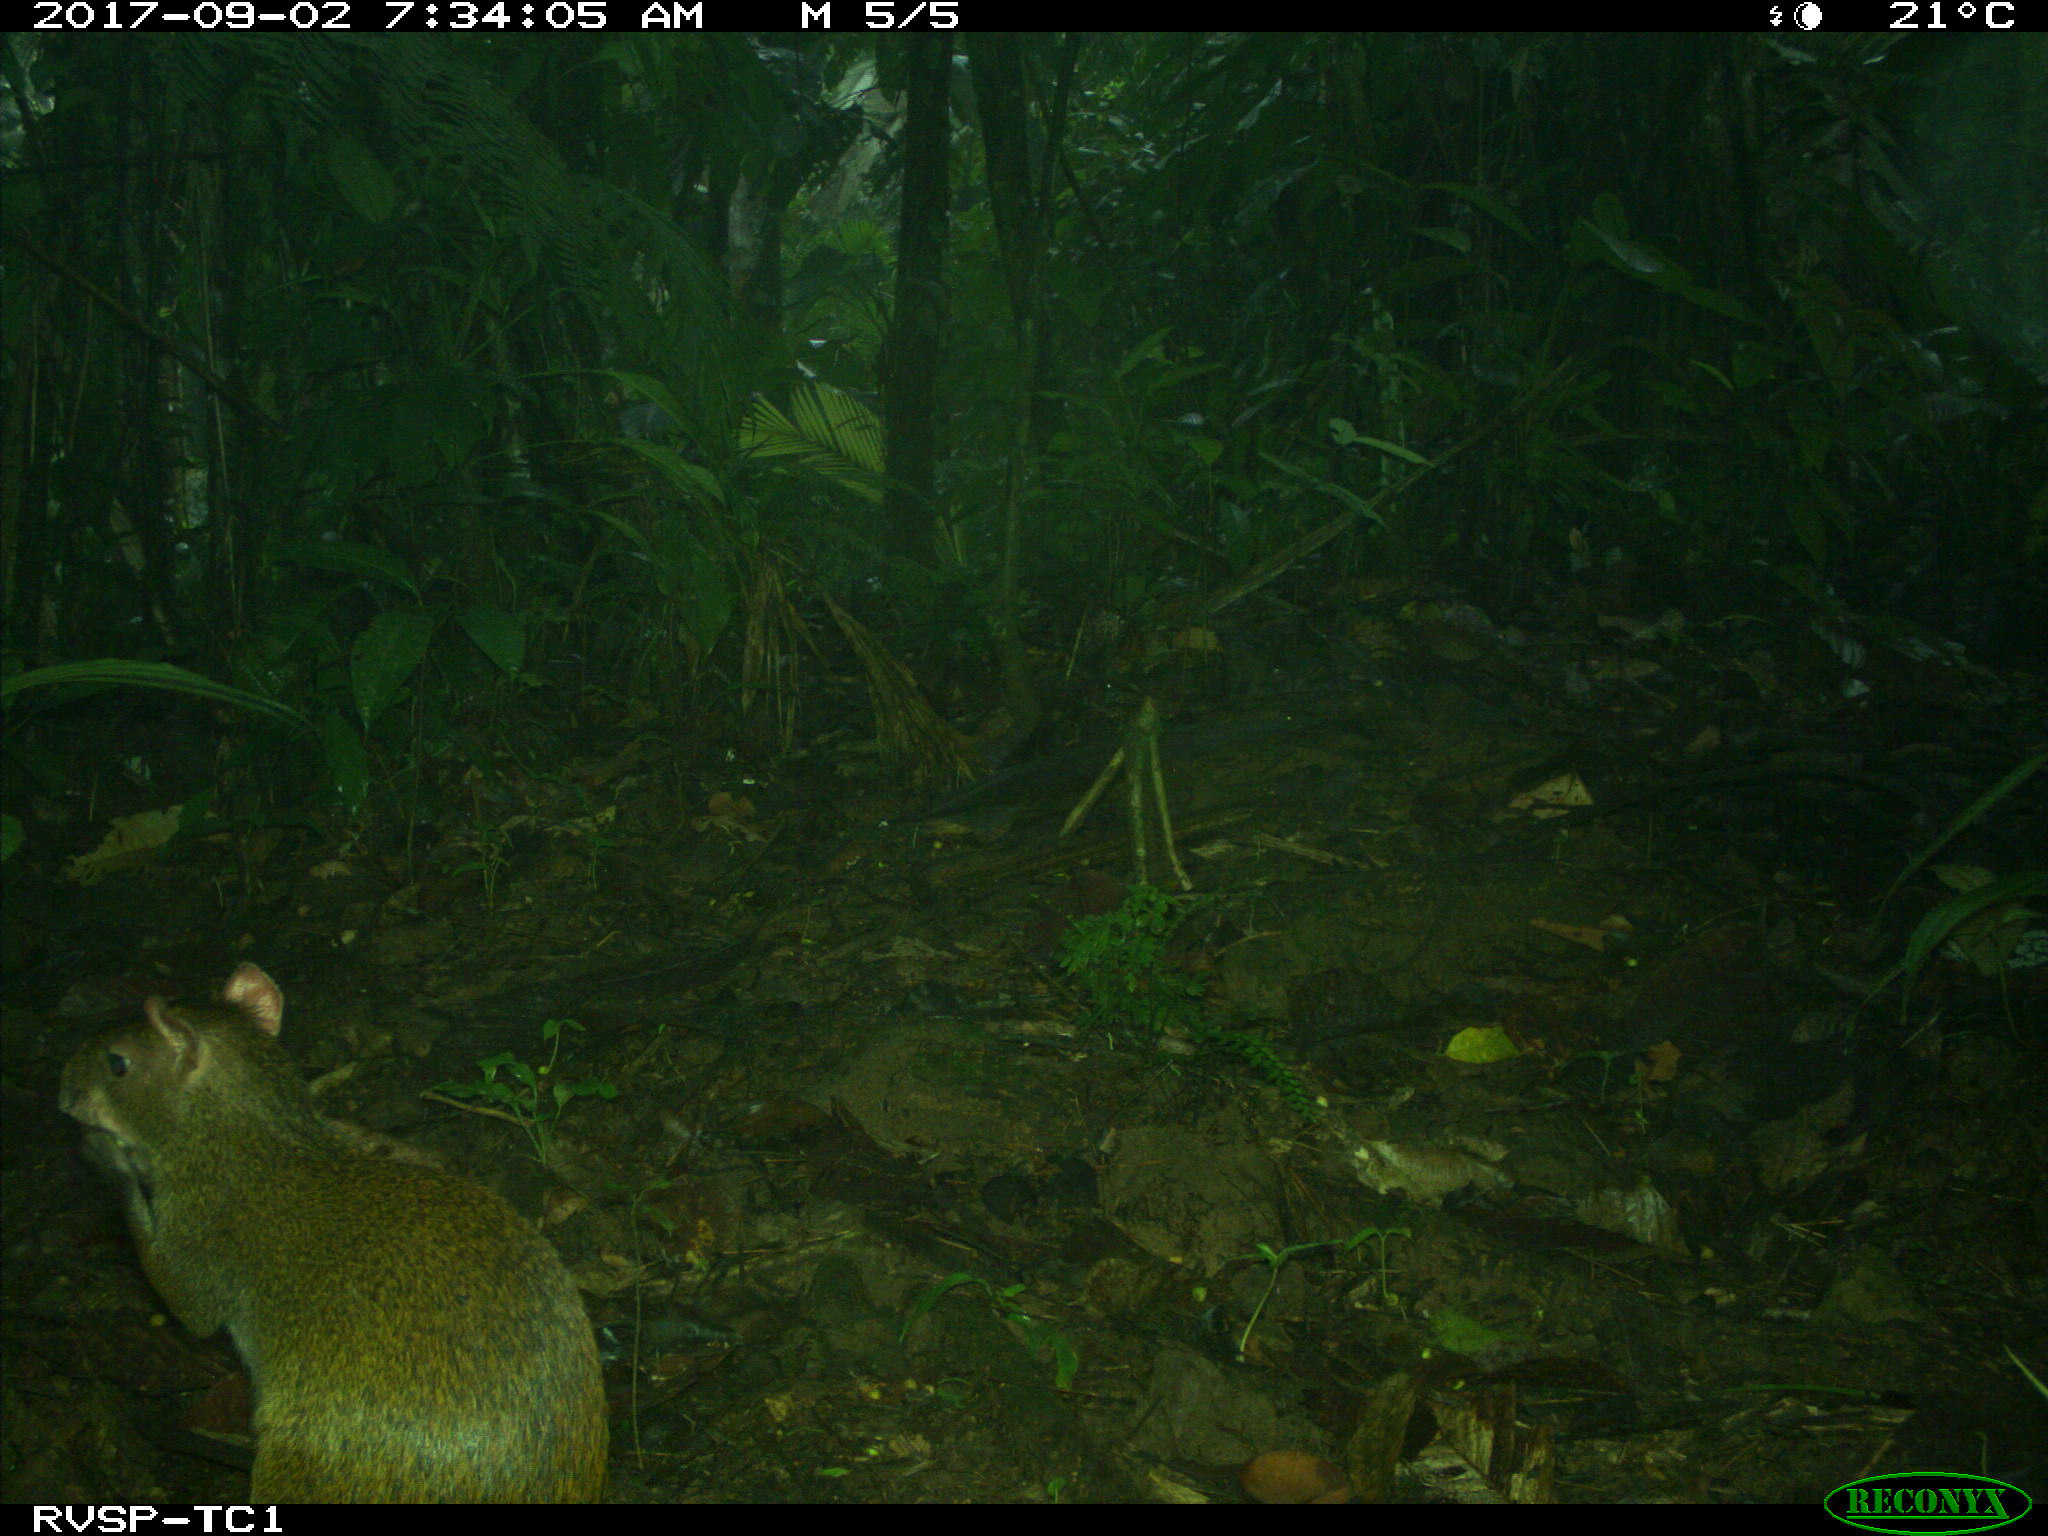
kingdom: Animalia
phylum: Chordata
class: Mammalia
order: Rodentia
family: Dasyproctidae
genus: Dasyprocta
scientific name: Dasyprocta punctata
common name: Central american agouti
